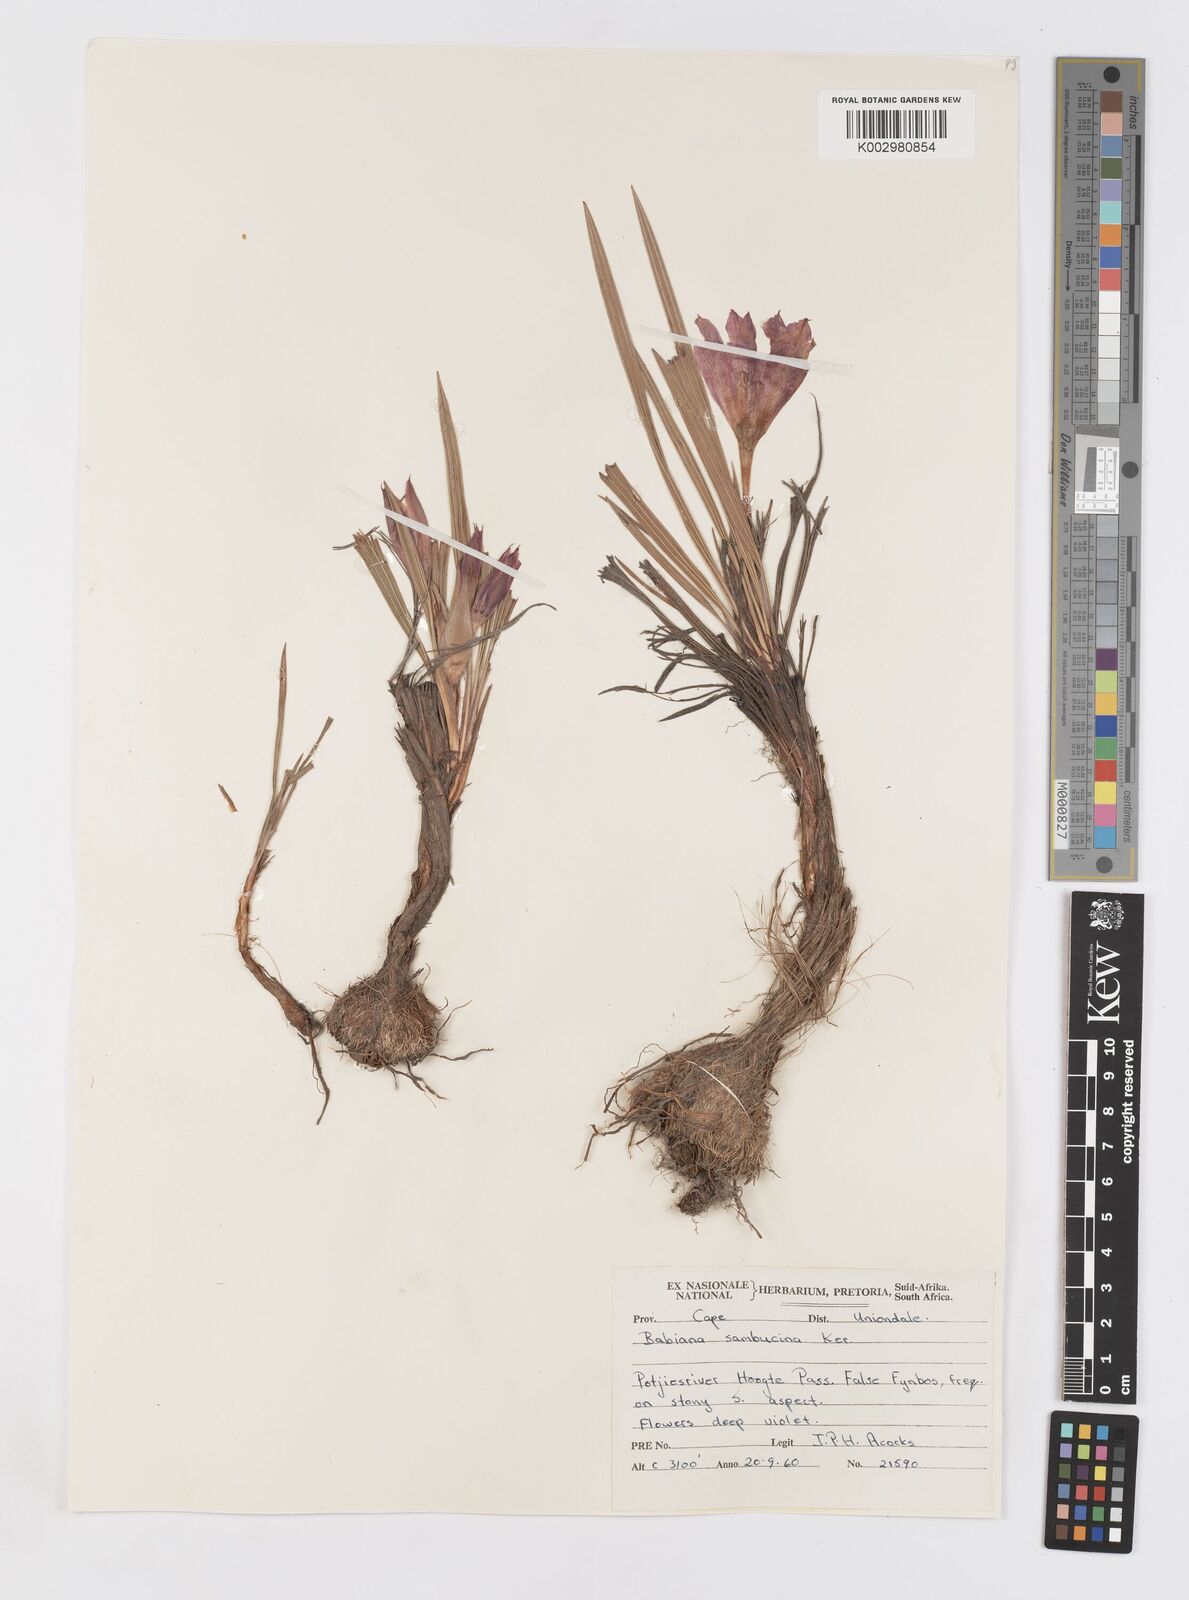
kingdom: Plantae
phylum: Tracheophyta
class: Liliopsida
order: Asparagales
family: Iridaceae
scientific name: Iridaceae
